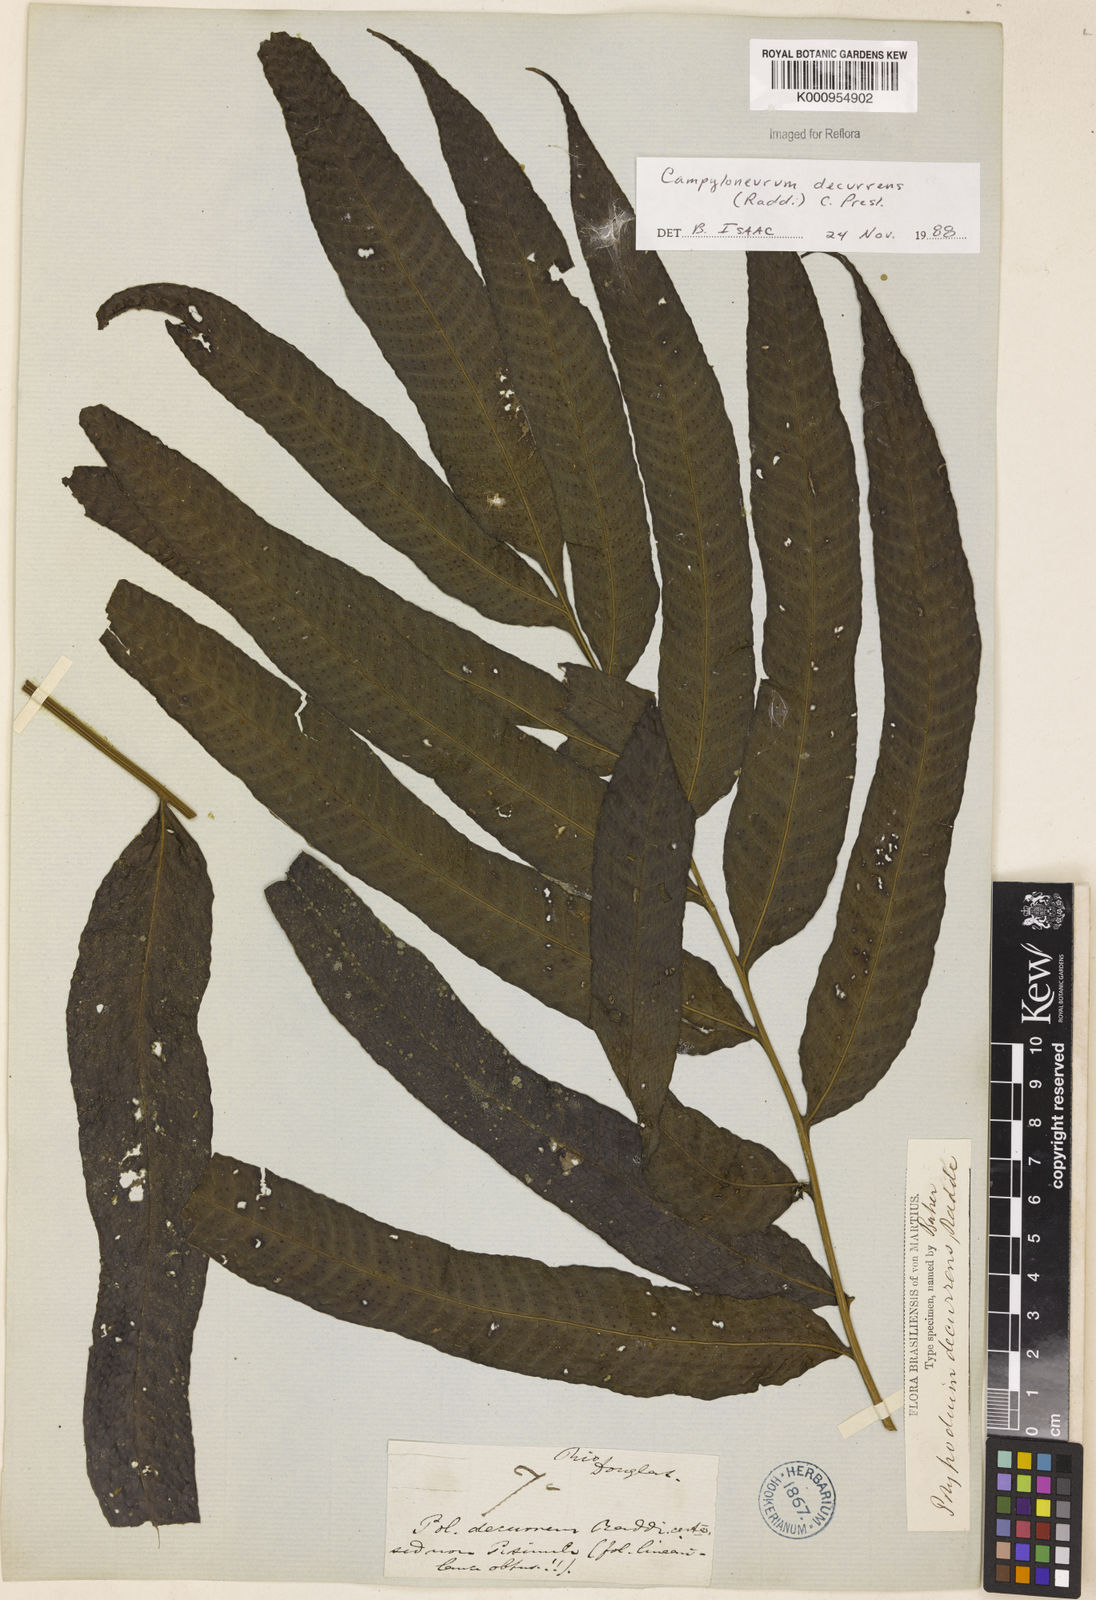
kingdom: Plantae
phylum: Tracheophyta
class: Polypodiopsida
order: Polypodiales
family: Polypodiaceae
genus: Campyloneurum
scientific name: Campyloneurum decurrens
